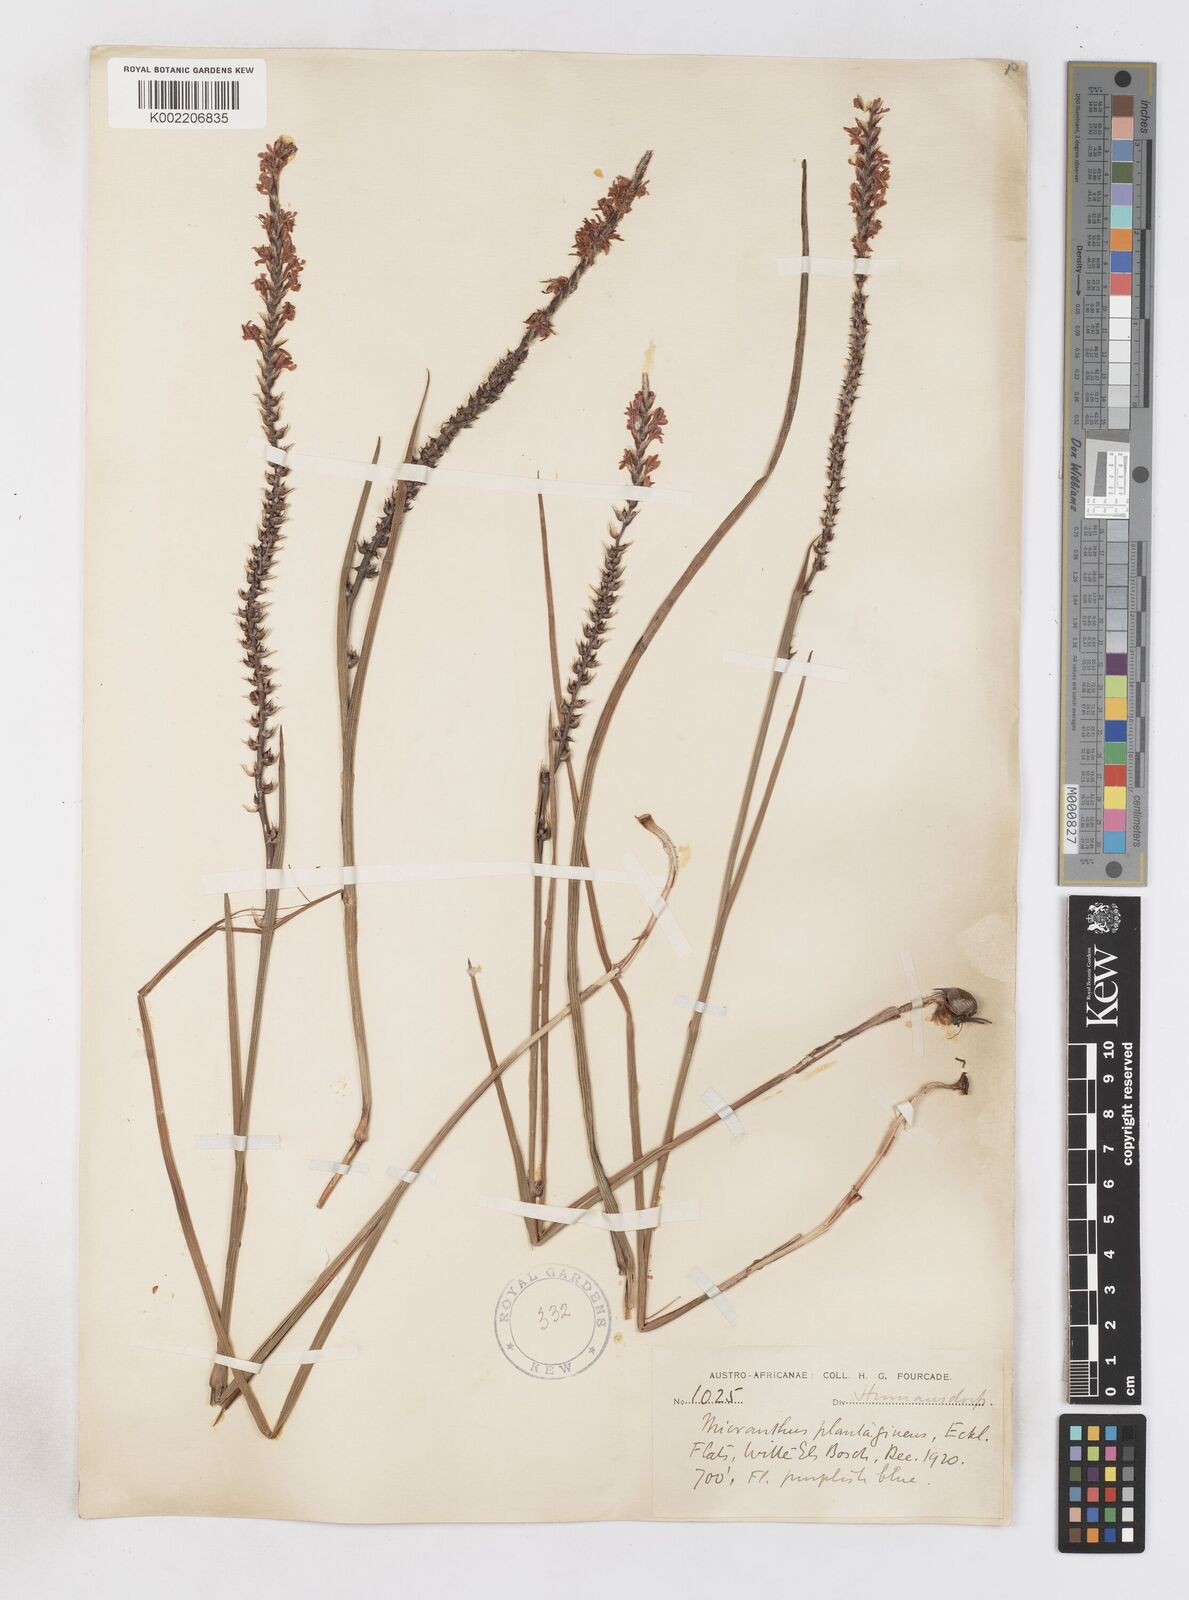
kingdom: Plantae
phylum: Tracheophyta
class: Liliopsida
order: Asparagales
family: Iridaceae
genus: Micranthus
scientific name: Micranthus alopecuroides
